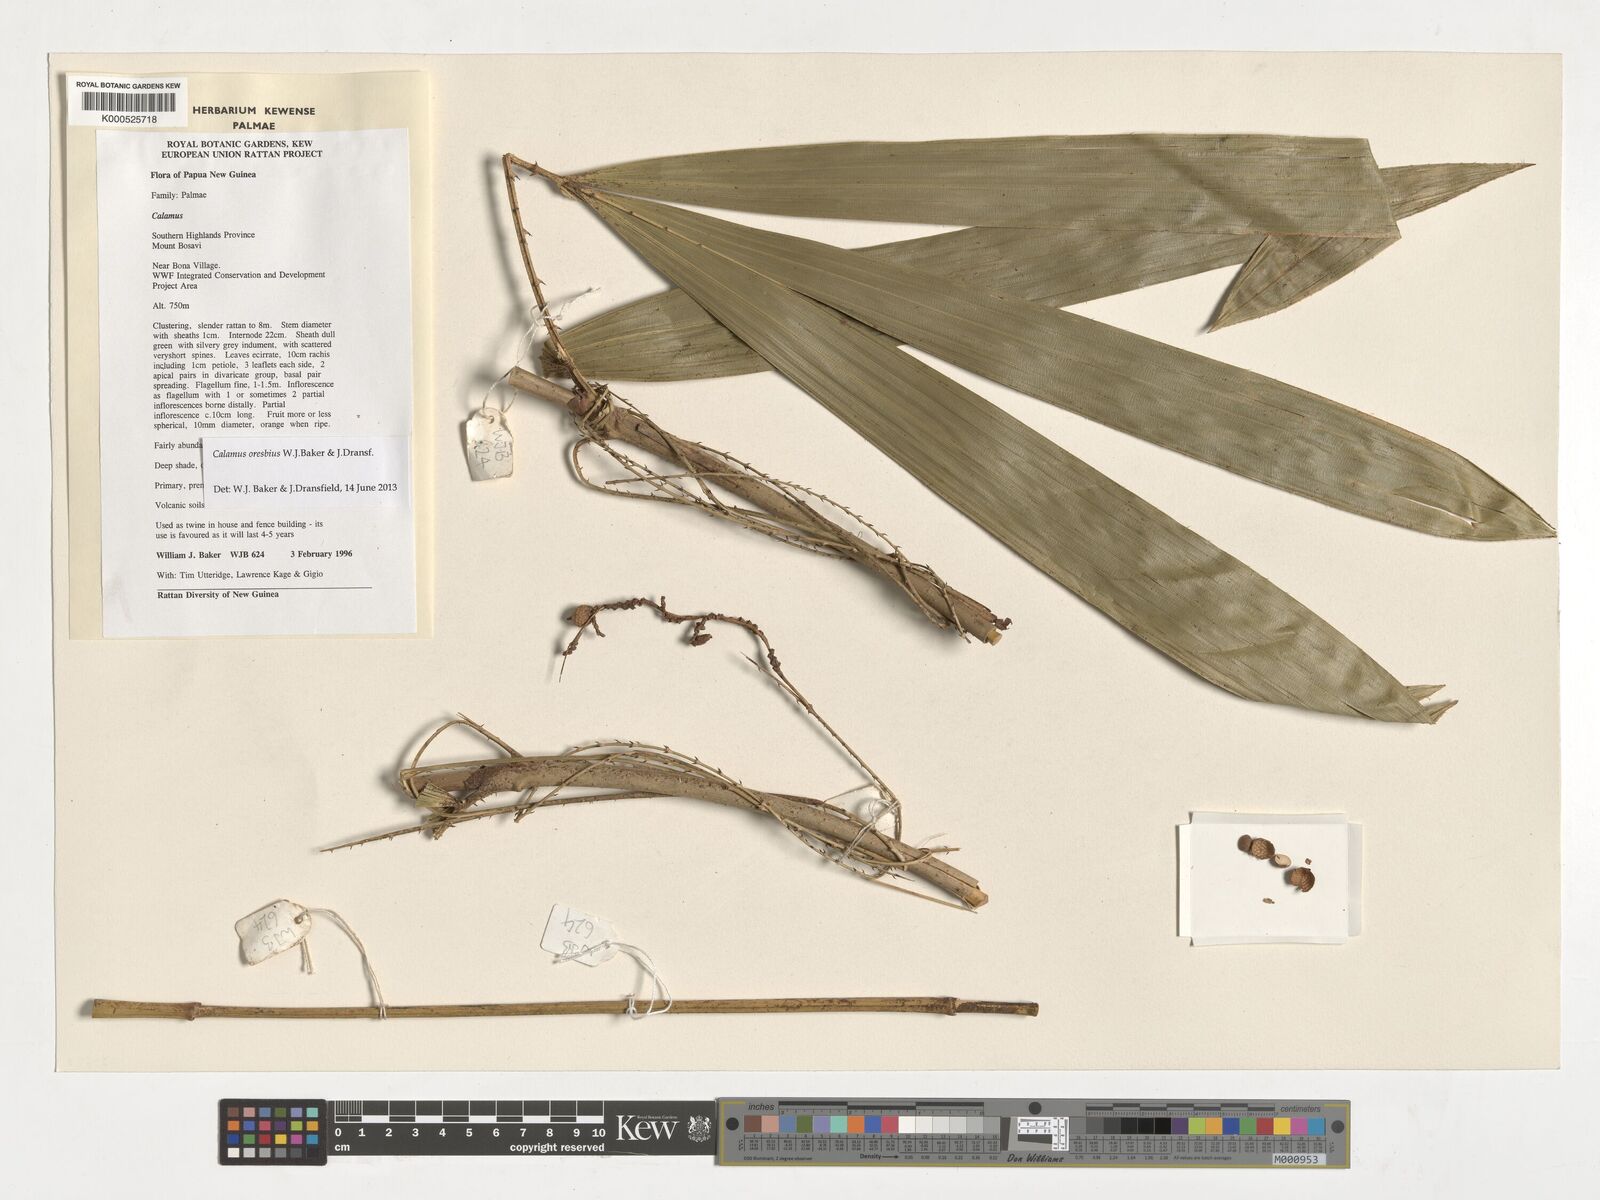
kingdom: Plantae
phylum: Tracheophyta
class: Liliopsida
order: Arecales
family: Arecaceae
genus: Calamus
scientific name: Calamus
